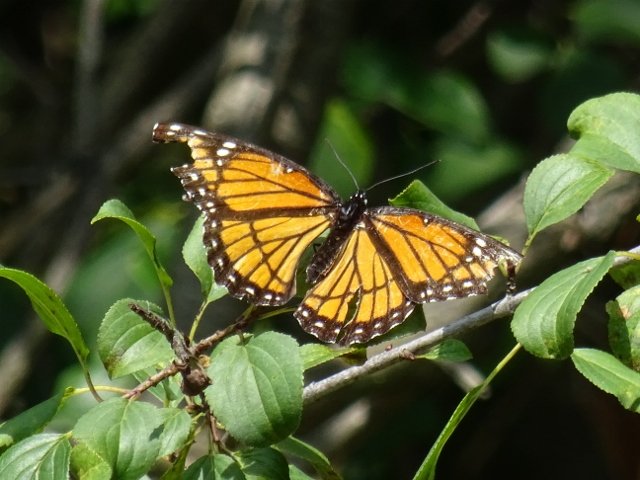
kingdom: Animalia
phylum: Arthropoda
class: Insecta
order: Lepidoptera
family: Nymphalidae
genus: Limenitis
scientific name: Limenitis archippus
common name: Viceroy
